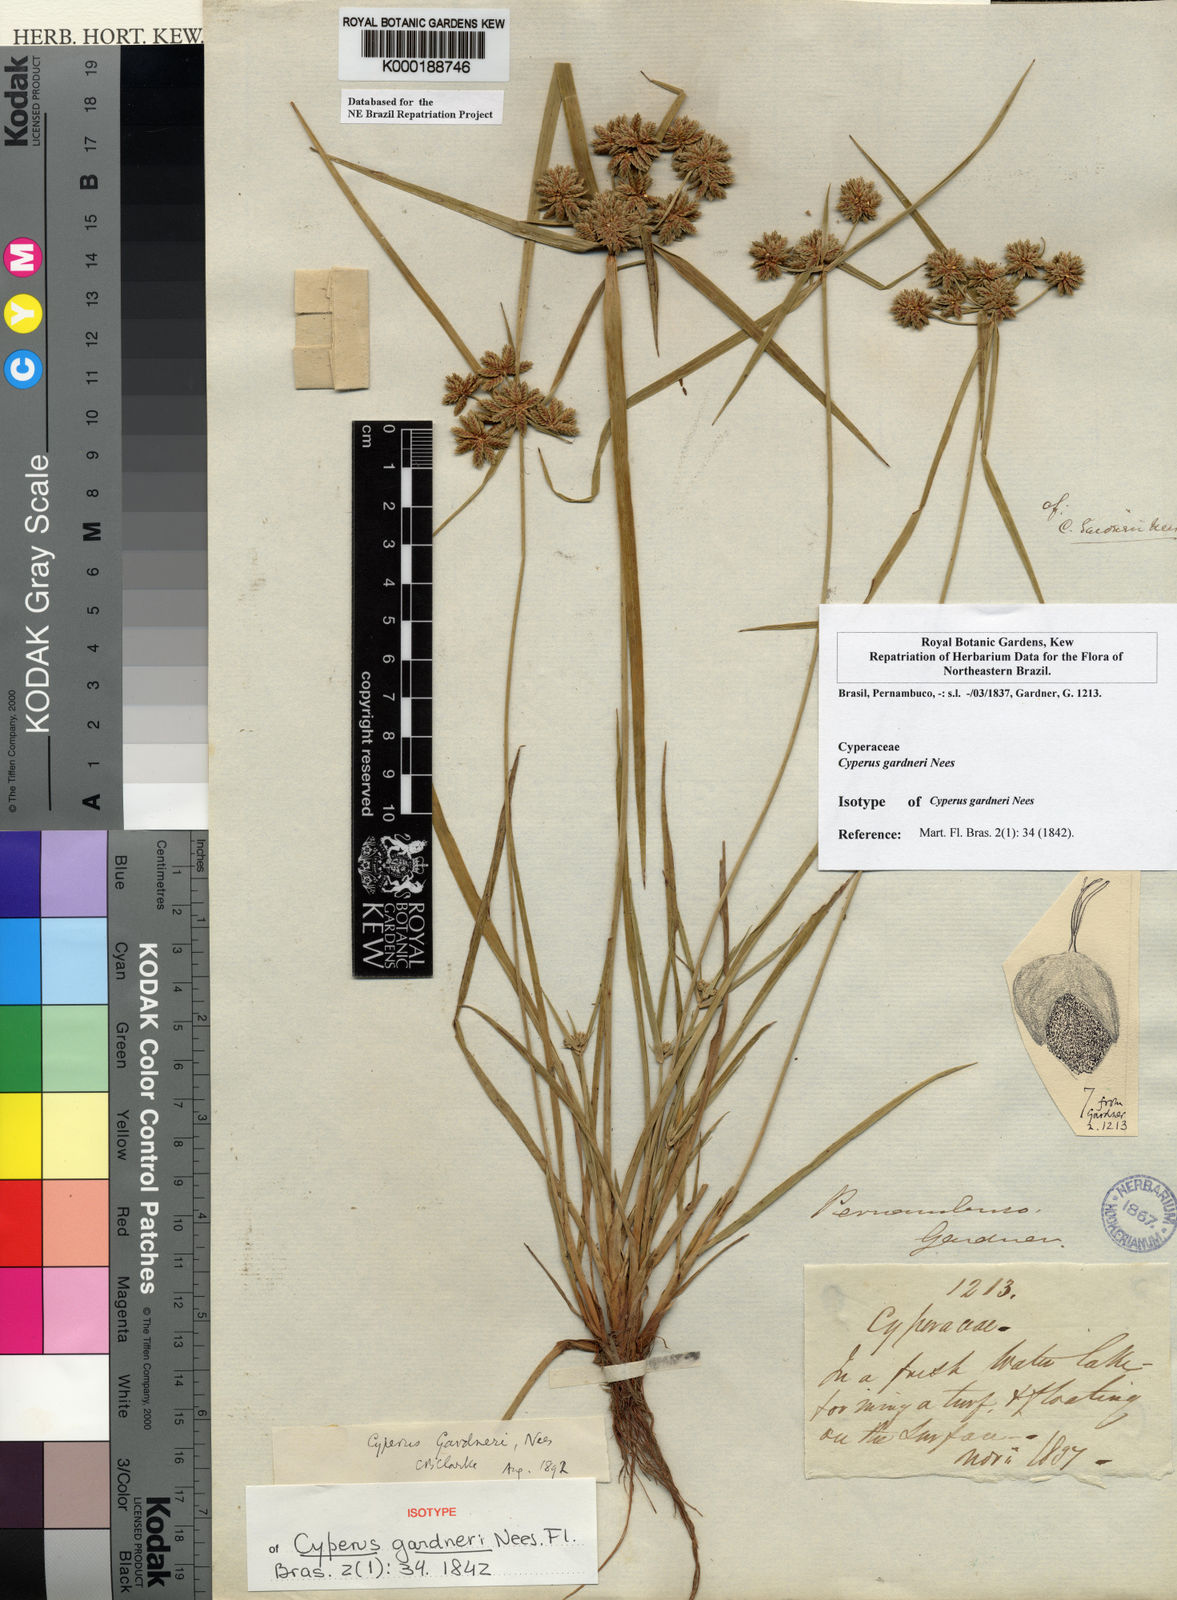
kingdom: Plantae
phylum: Tracheophyta
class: Liliopsida
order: Poales
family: Cyperaceae
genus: Cyperus
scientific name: Cyperus gardneri
